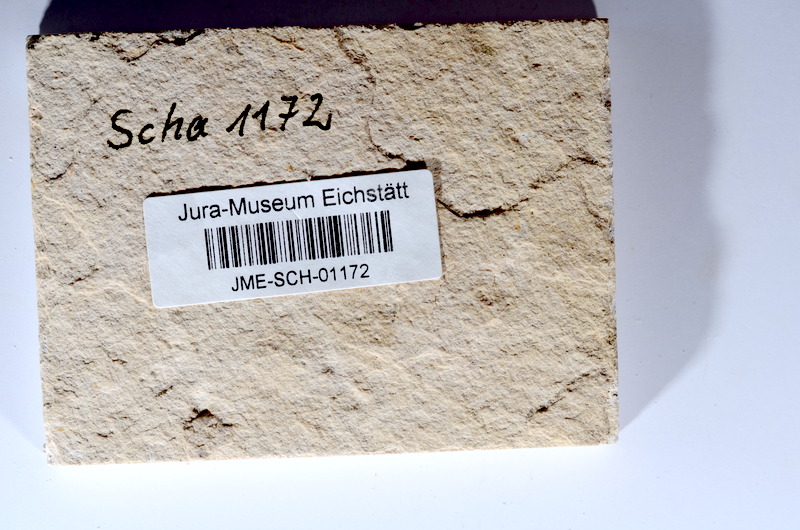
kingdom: Animalia
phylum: Chordata
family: Ascalaboidae
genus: Tharsis
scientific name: Tharsis dubius
